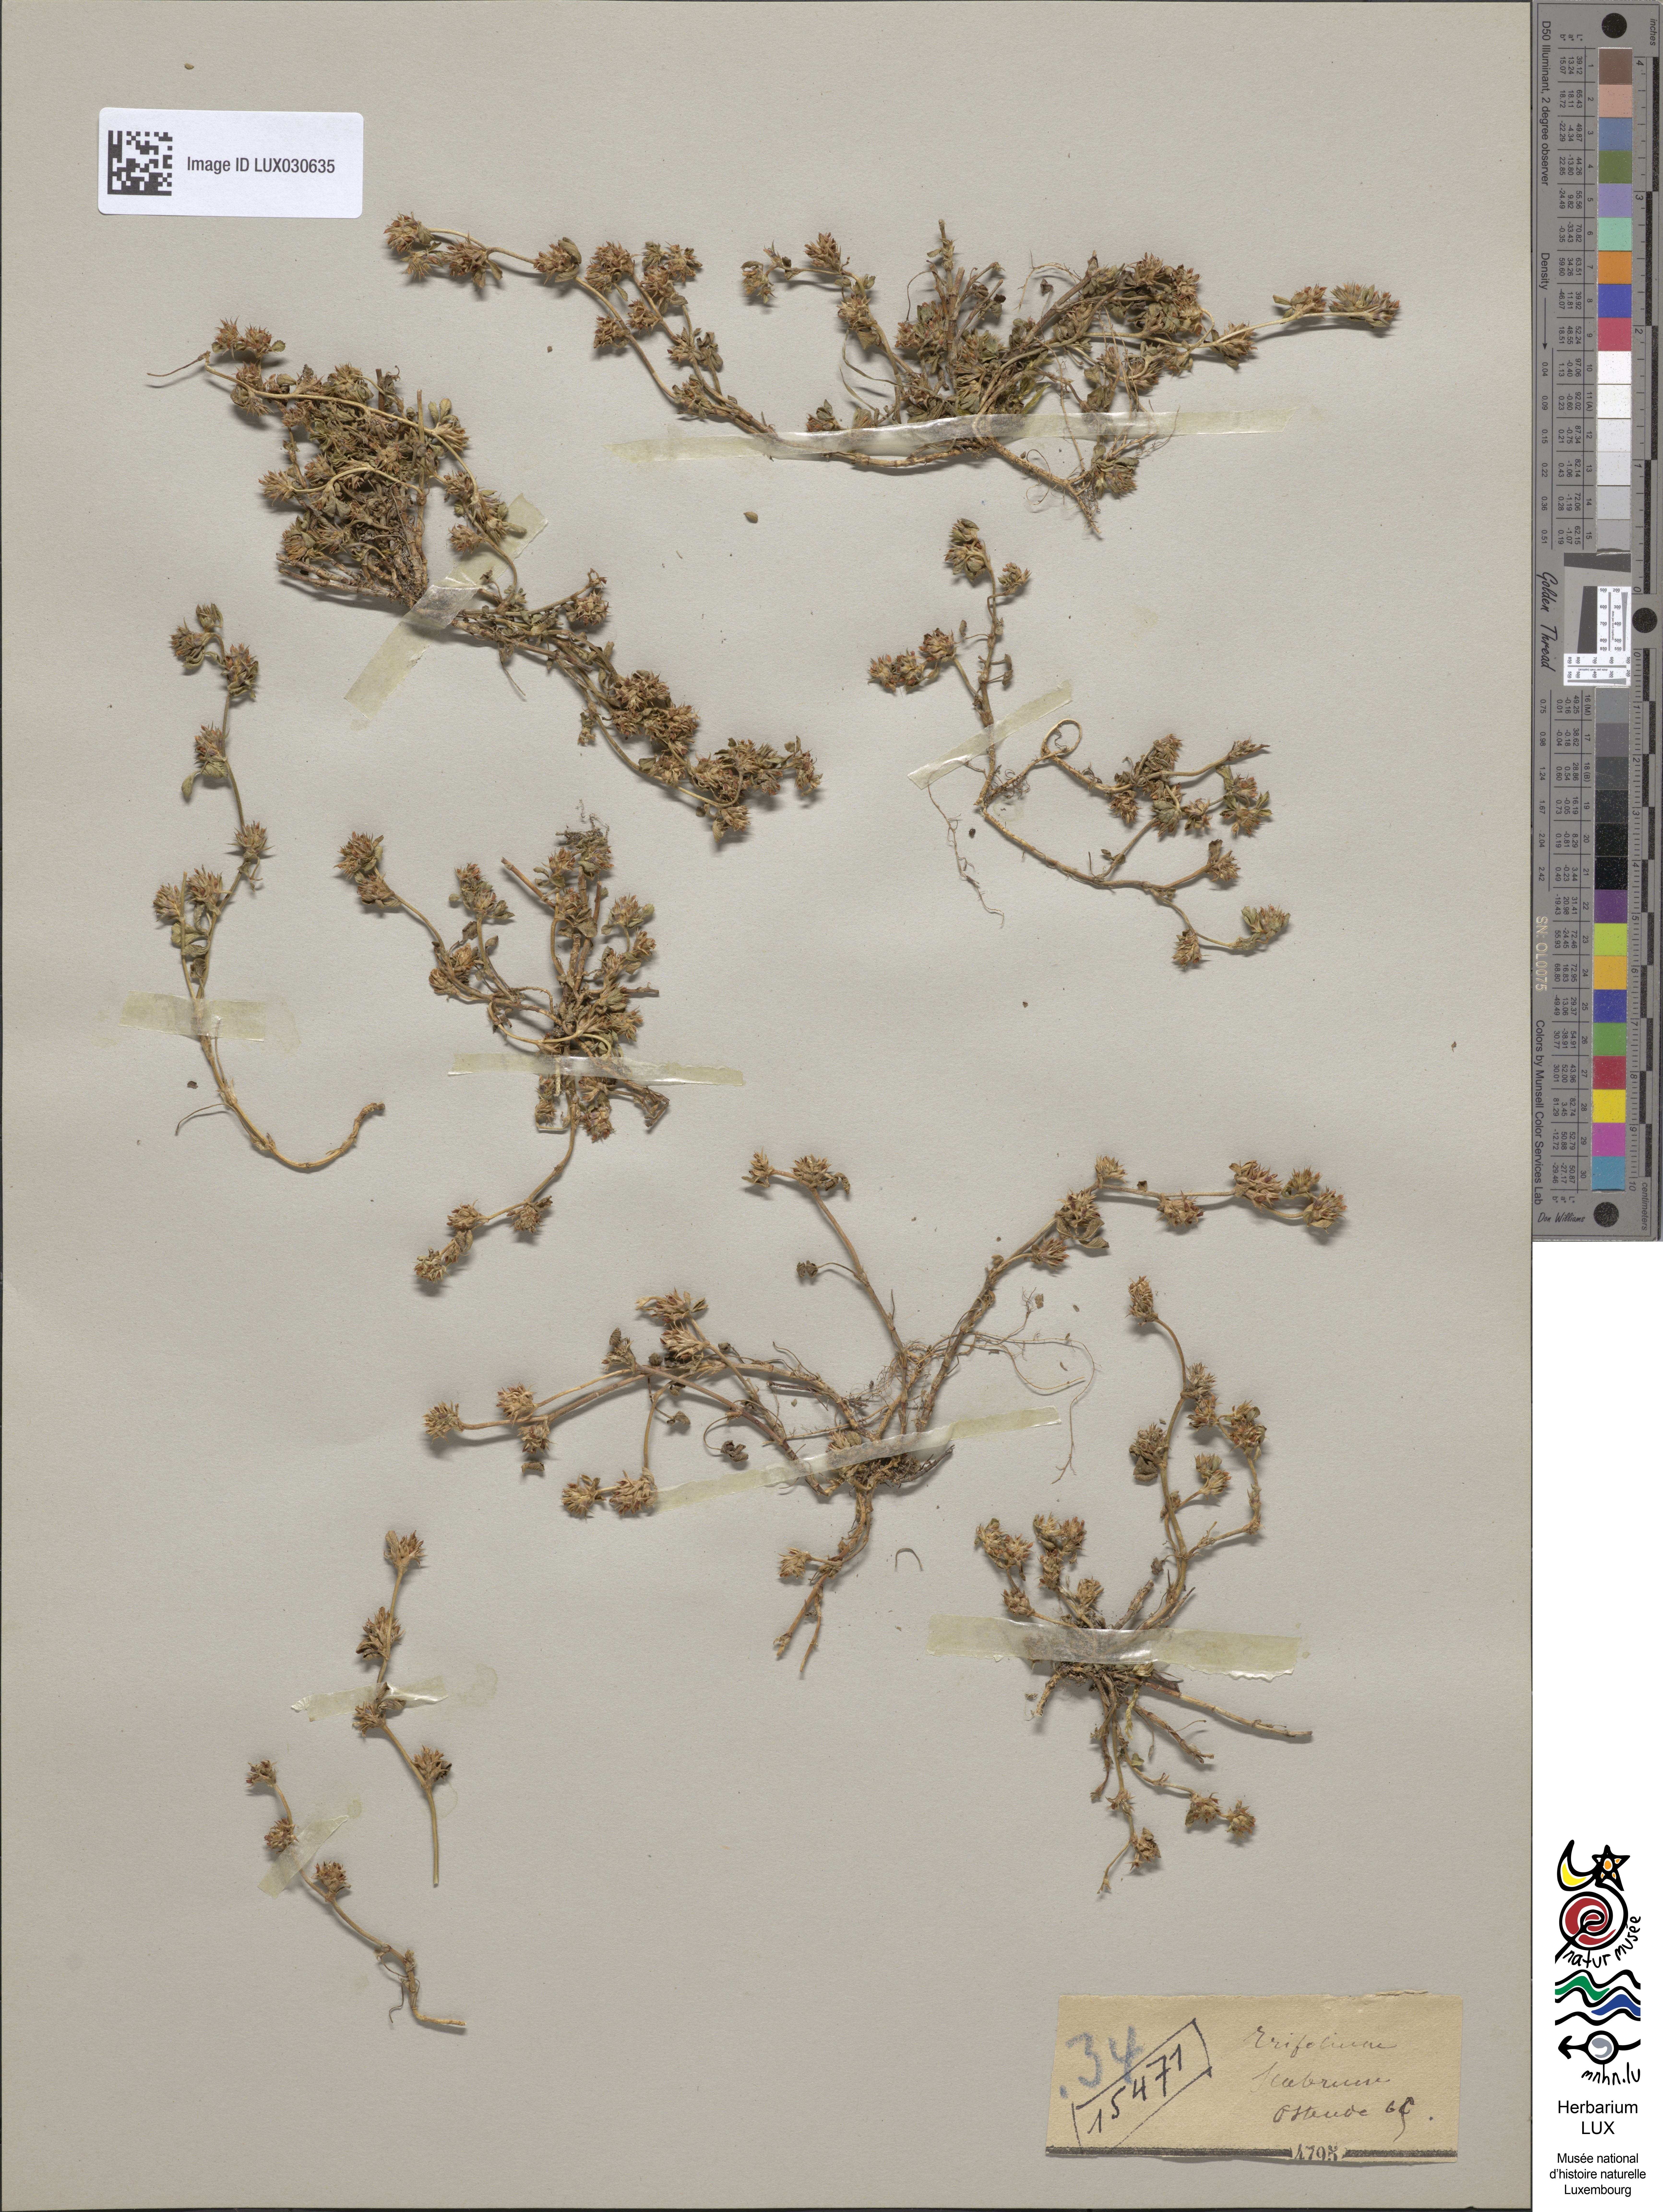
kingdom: Plantae
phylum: Tracheophyta
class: Magnoliopsida
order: Fabales
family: Fabaceae
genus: Trifolium
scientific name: Trifolium scabrum
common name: Rough clover
